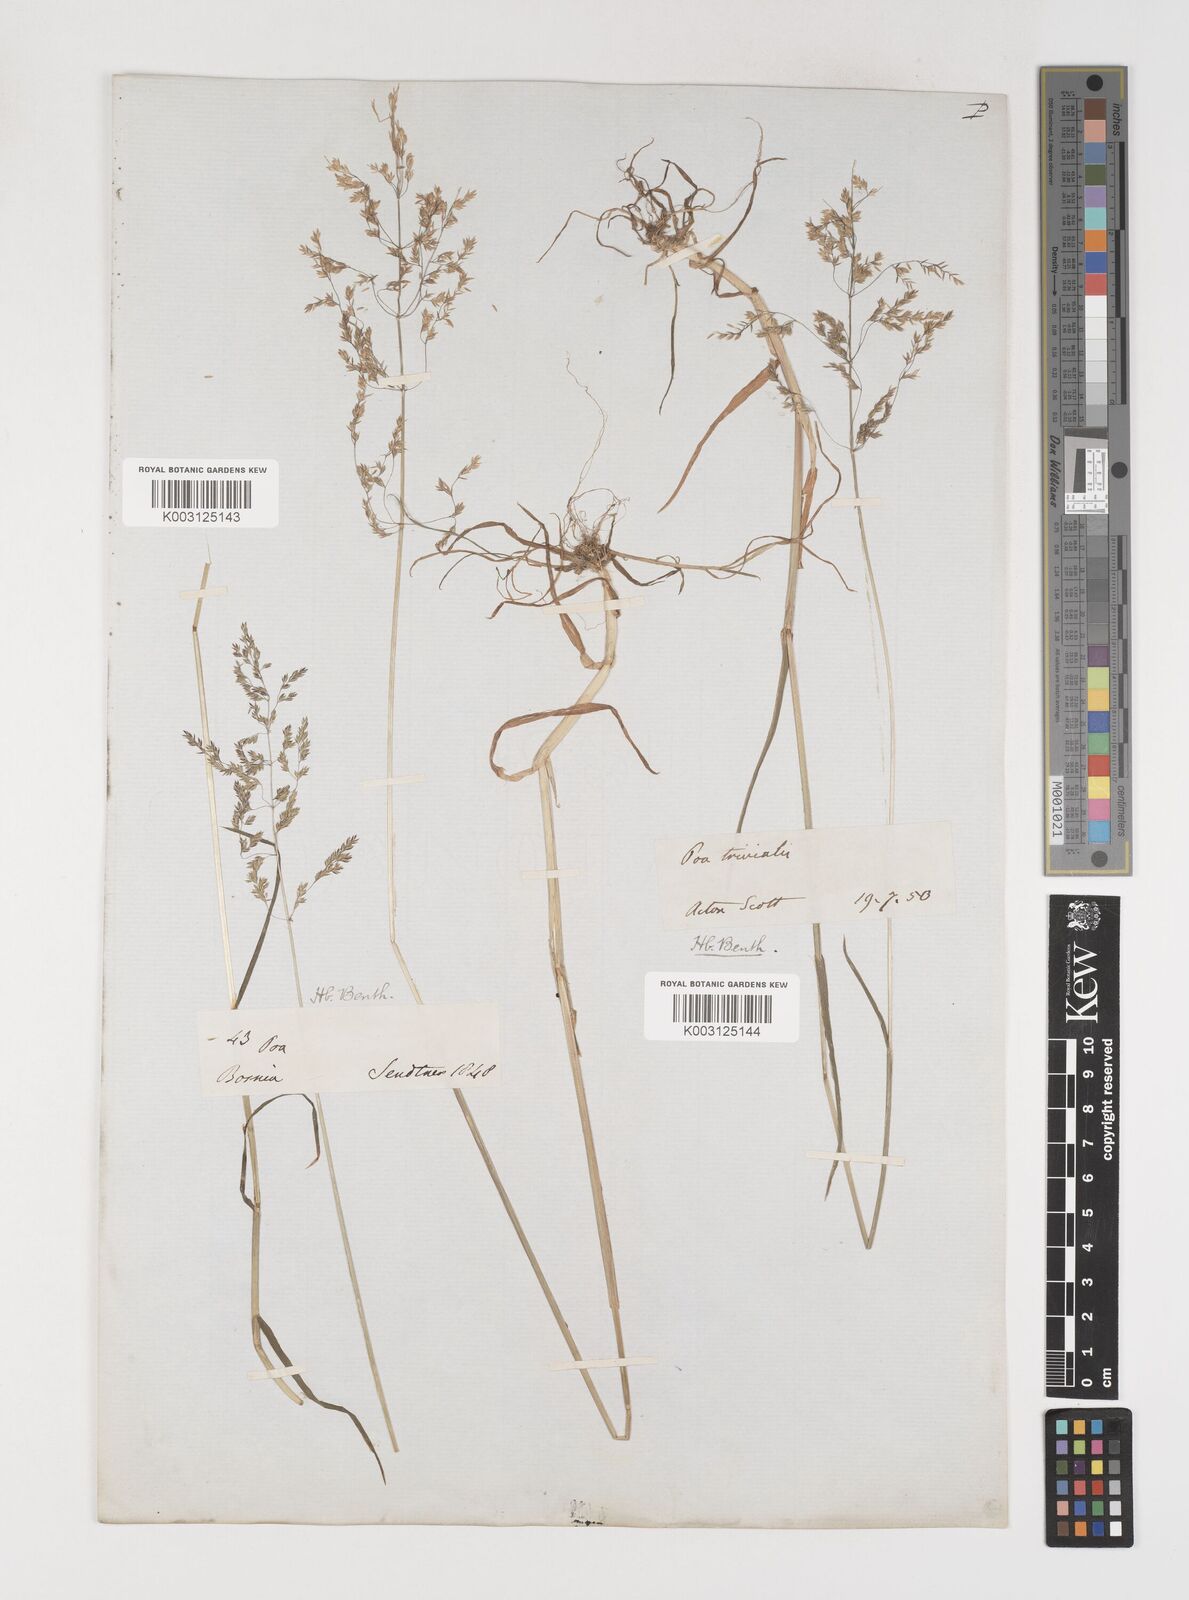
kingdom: Plantae
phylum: Tracheophyta
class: Liliopsida
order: Poales
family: Poaceae
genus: Poa
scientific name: Poa trivialis
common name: Rough bluegrass
